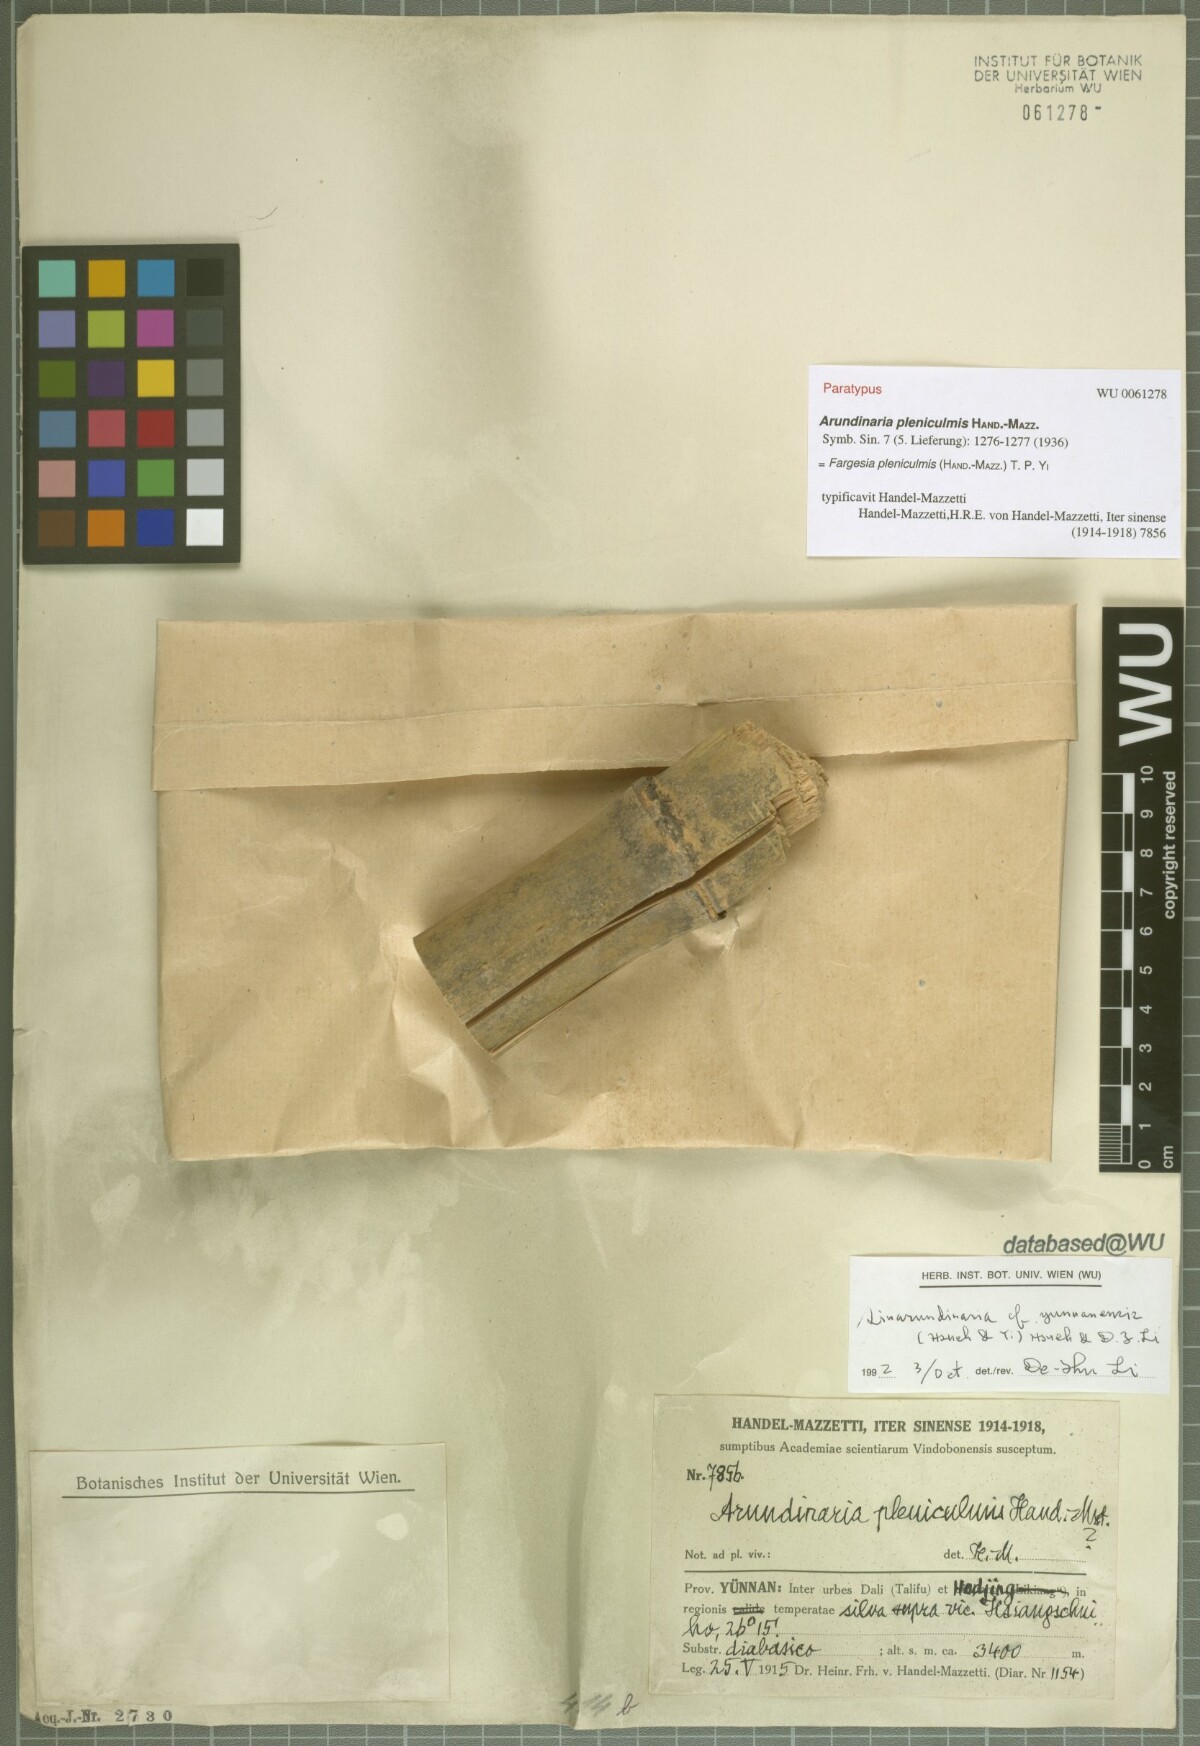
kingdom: Plantae
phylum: Tracheophyta
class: Liliopsida
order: Poales
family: Poaceae
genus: Borinda
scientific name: Borinda pleniculmis
